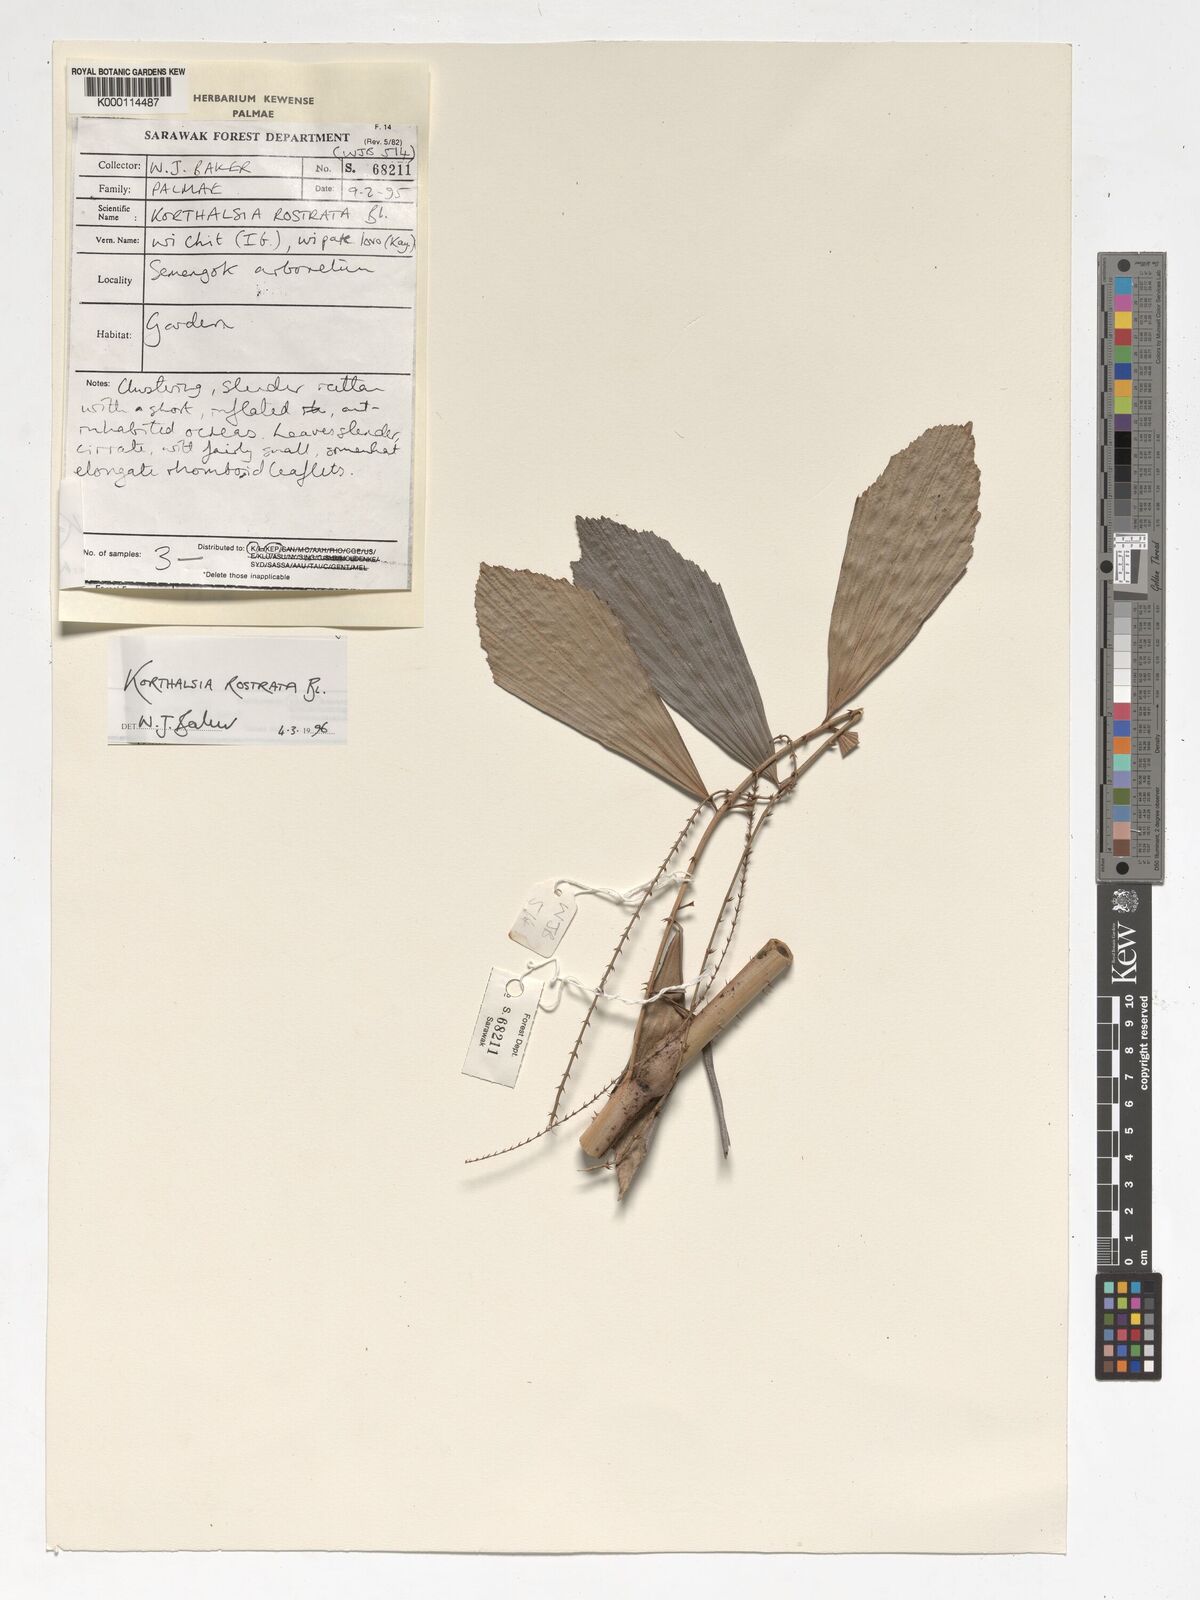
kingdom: Plantae
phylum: Tracheophyta
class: Liliopsida
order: Arecales
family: Arecaceae
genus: Korthalsia
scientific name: Korthalsia rostrata
